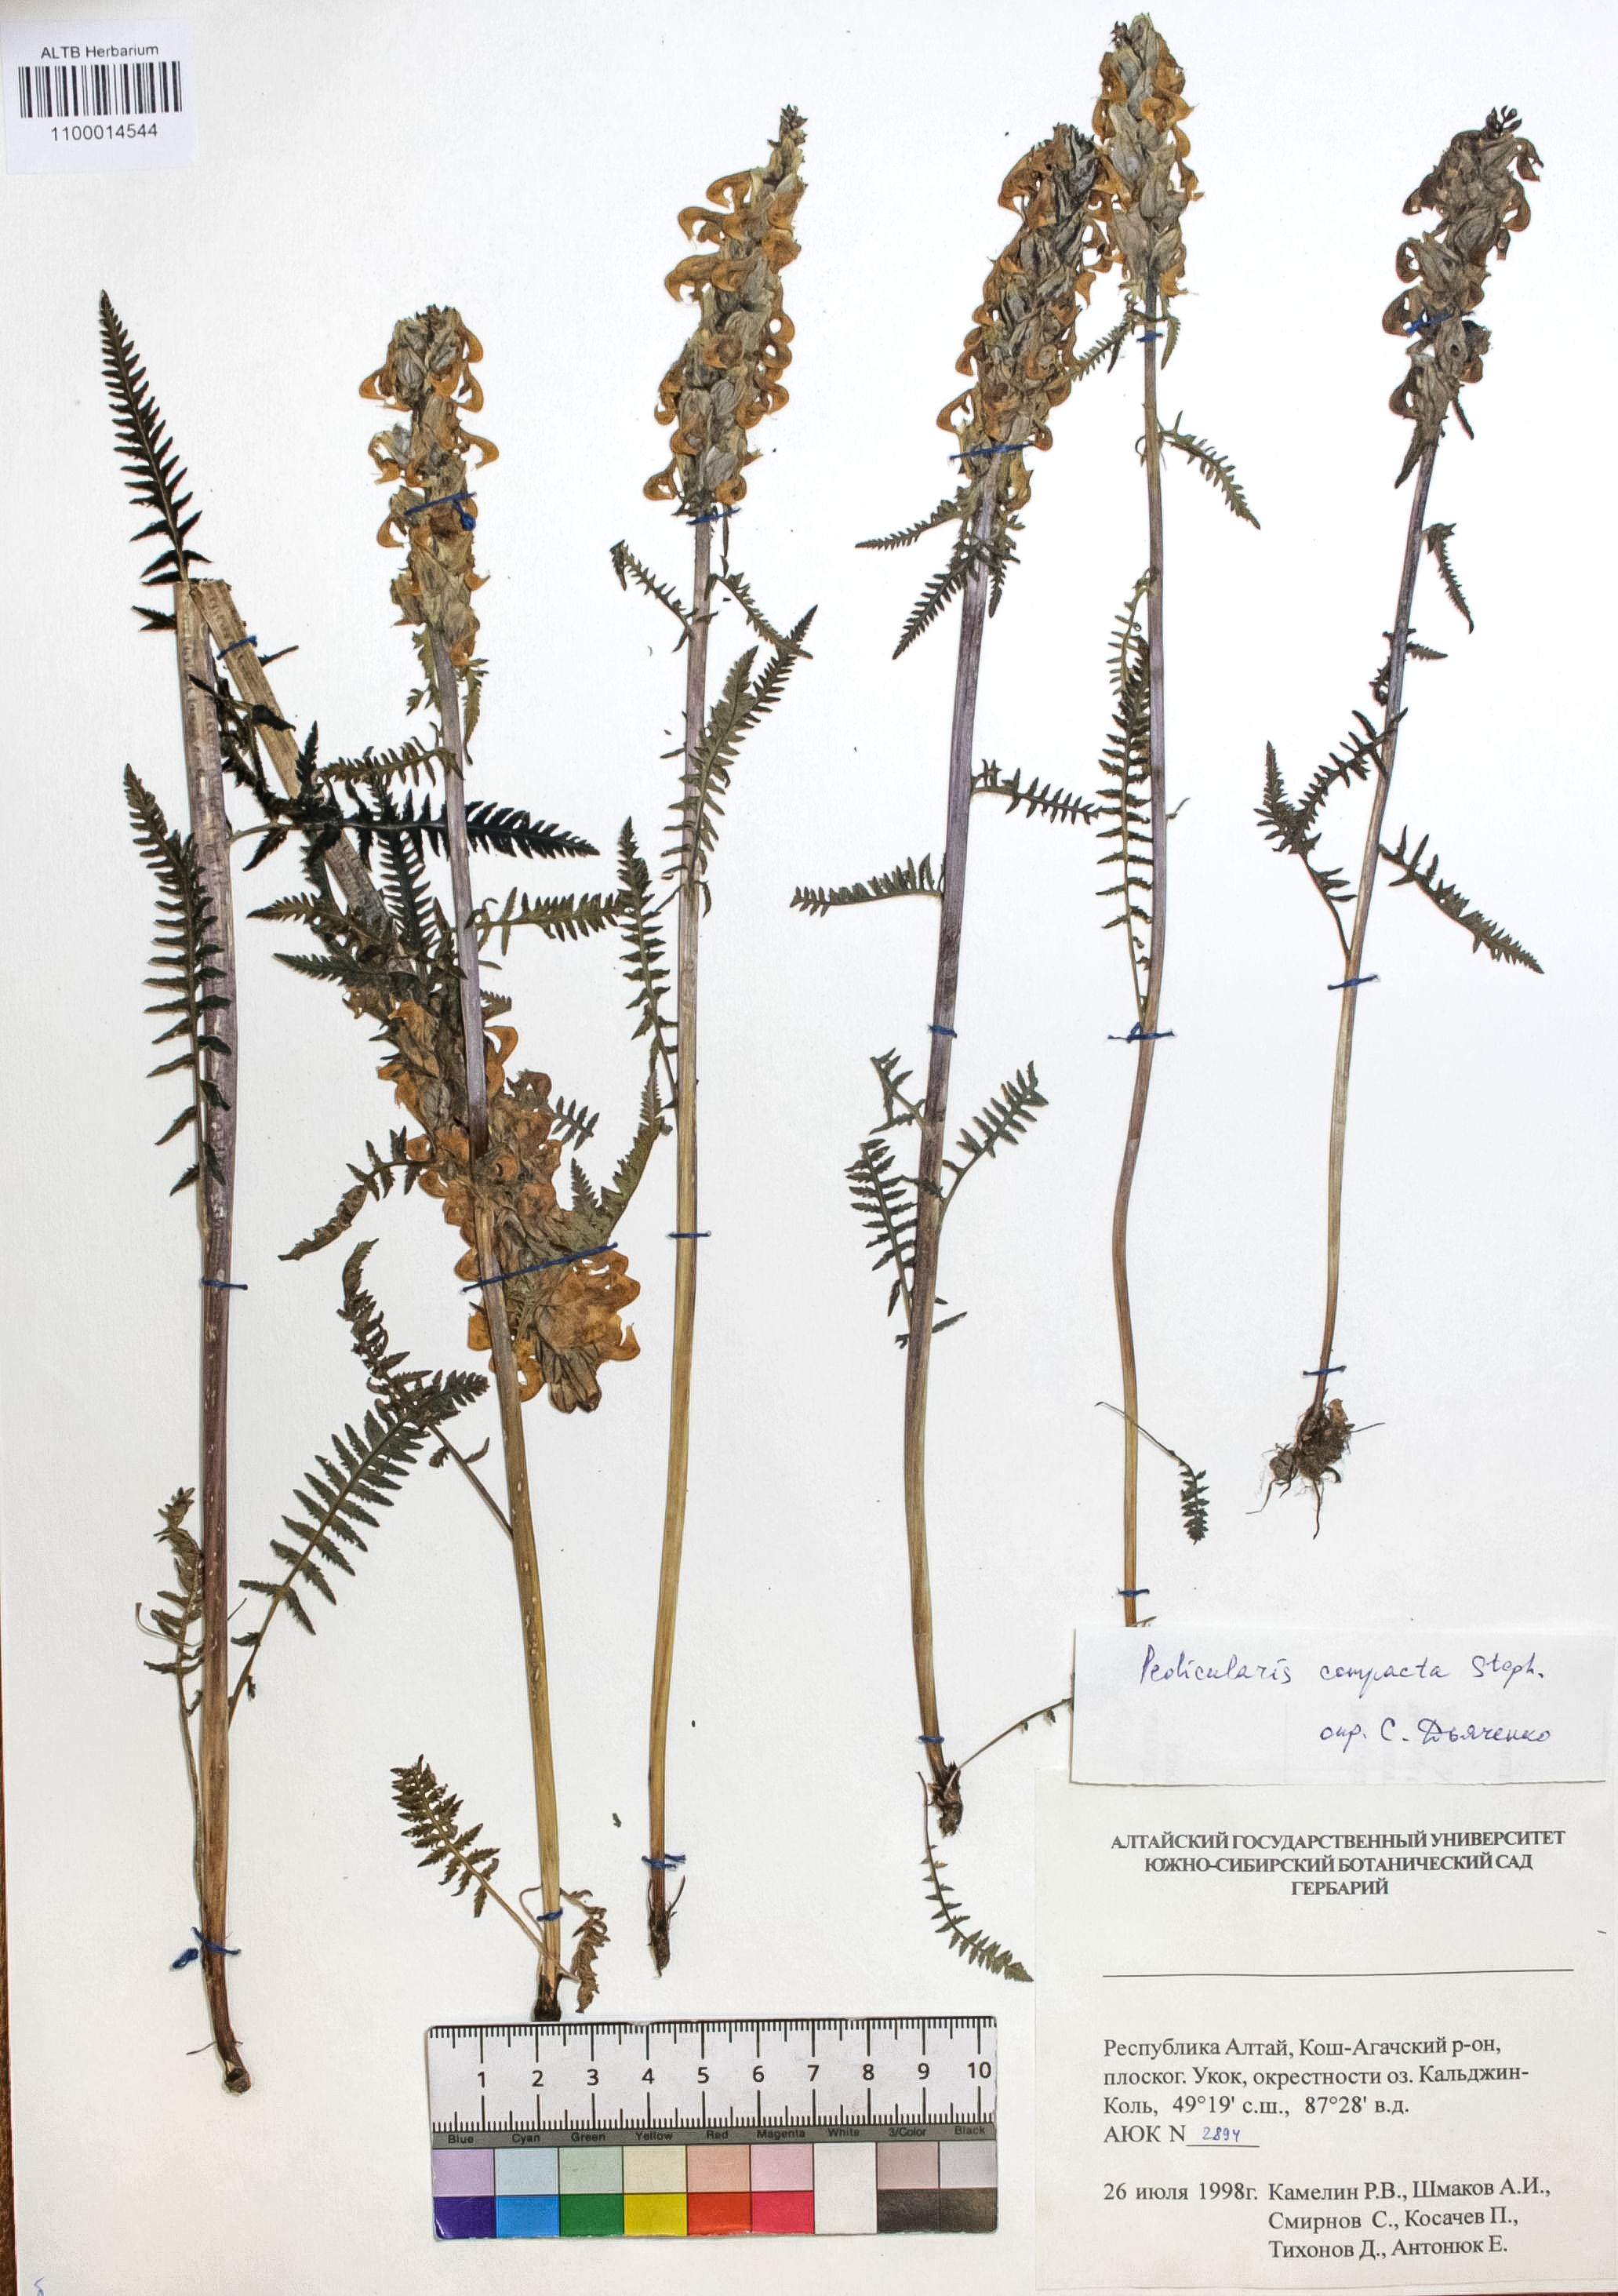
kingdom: Plantae
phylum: Tracheophyta
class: Magnoliopsida
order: Lamiales
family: Orobanchaceae
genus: Pedicularis
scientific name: Pedicularis compacta
